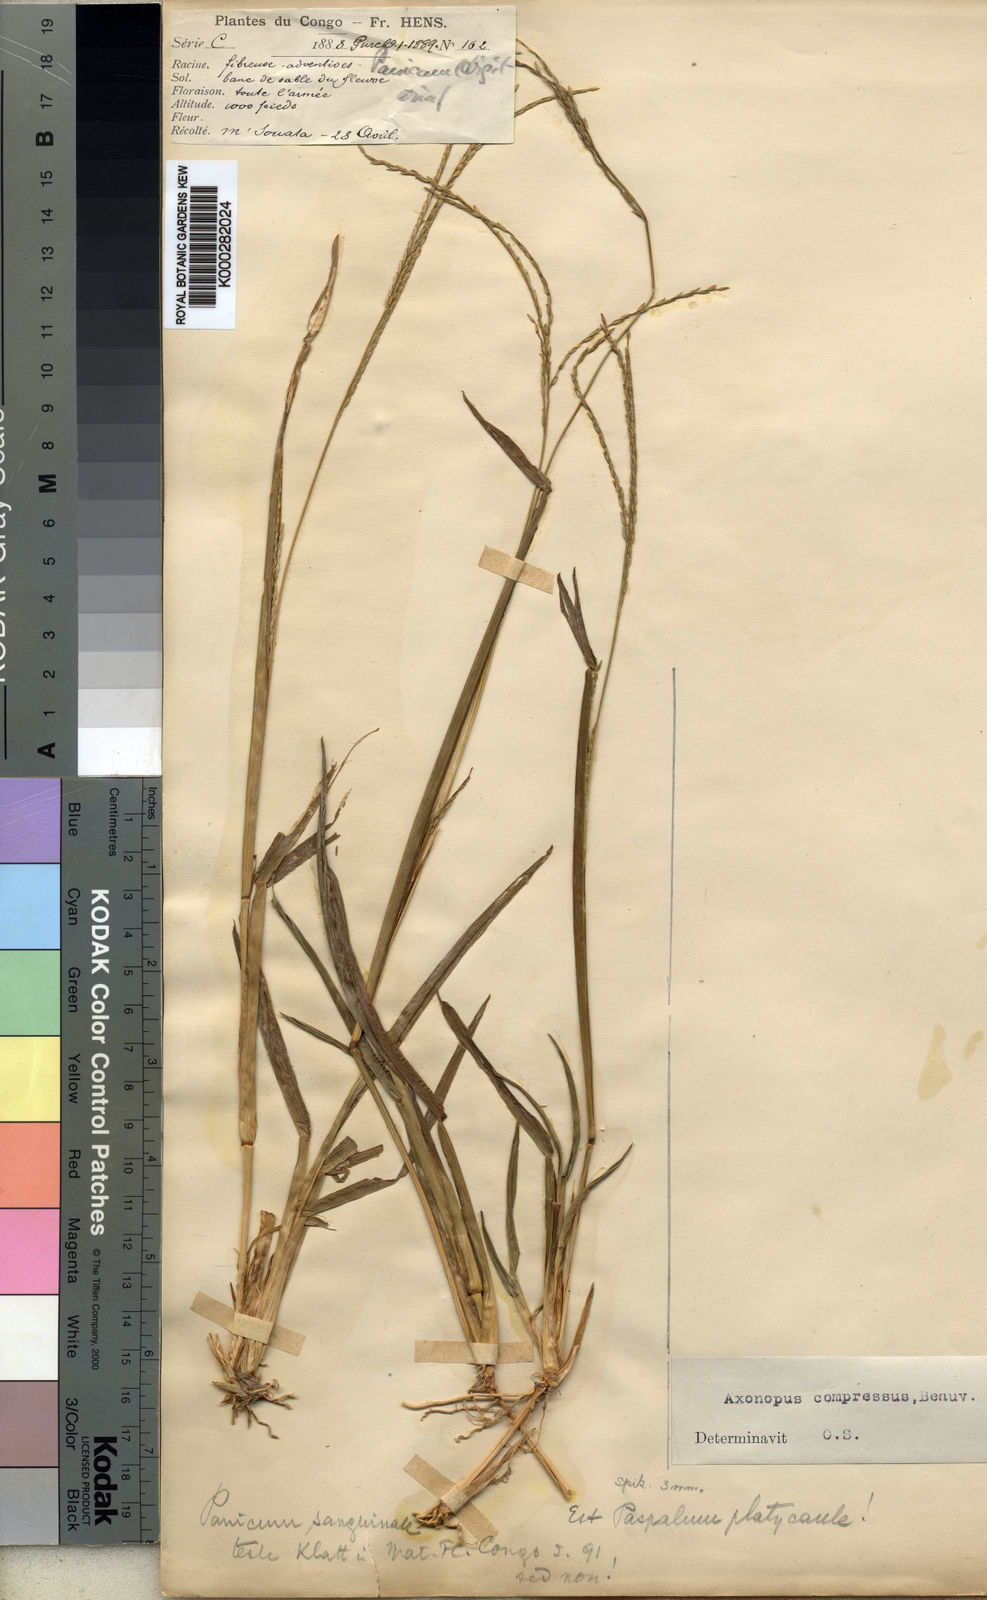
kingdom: Plantae
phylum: Tracheophyta
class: Liliopsida
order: Poales
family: Poaceae
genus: Axonopus
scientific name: Axonopus flexuosus
